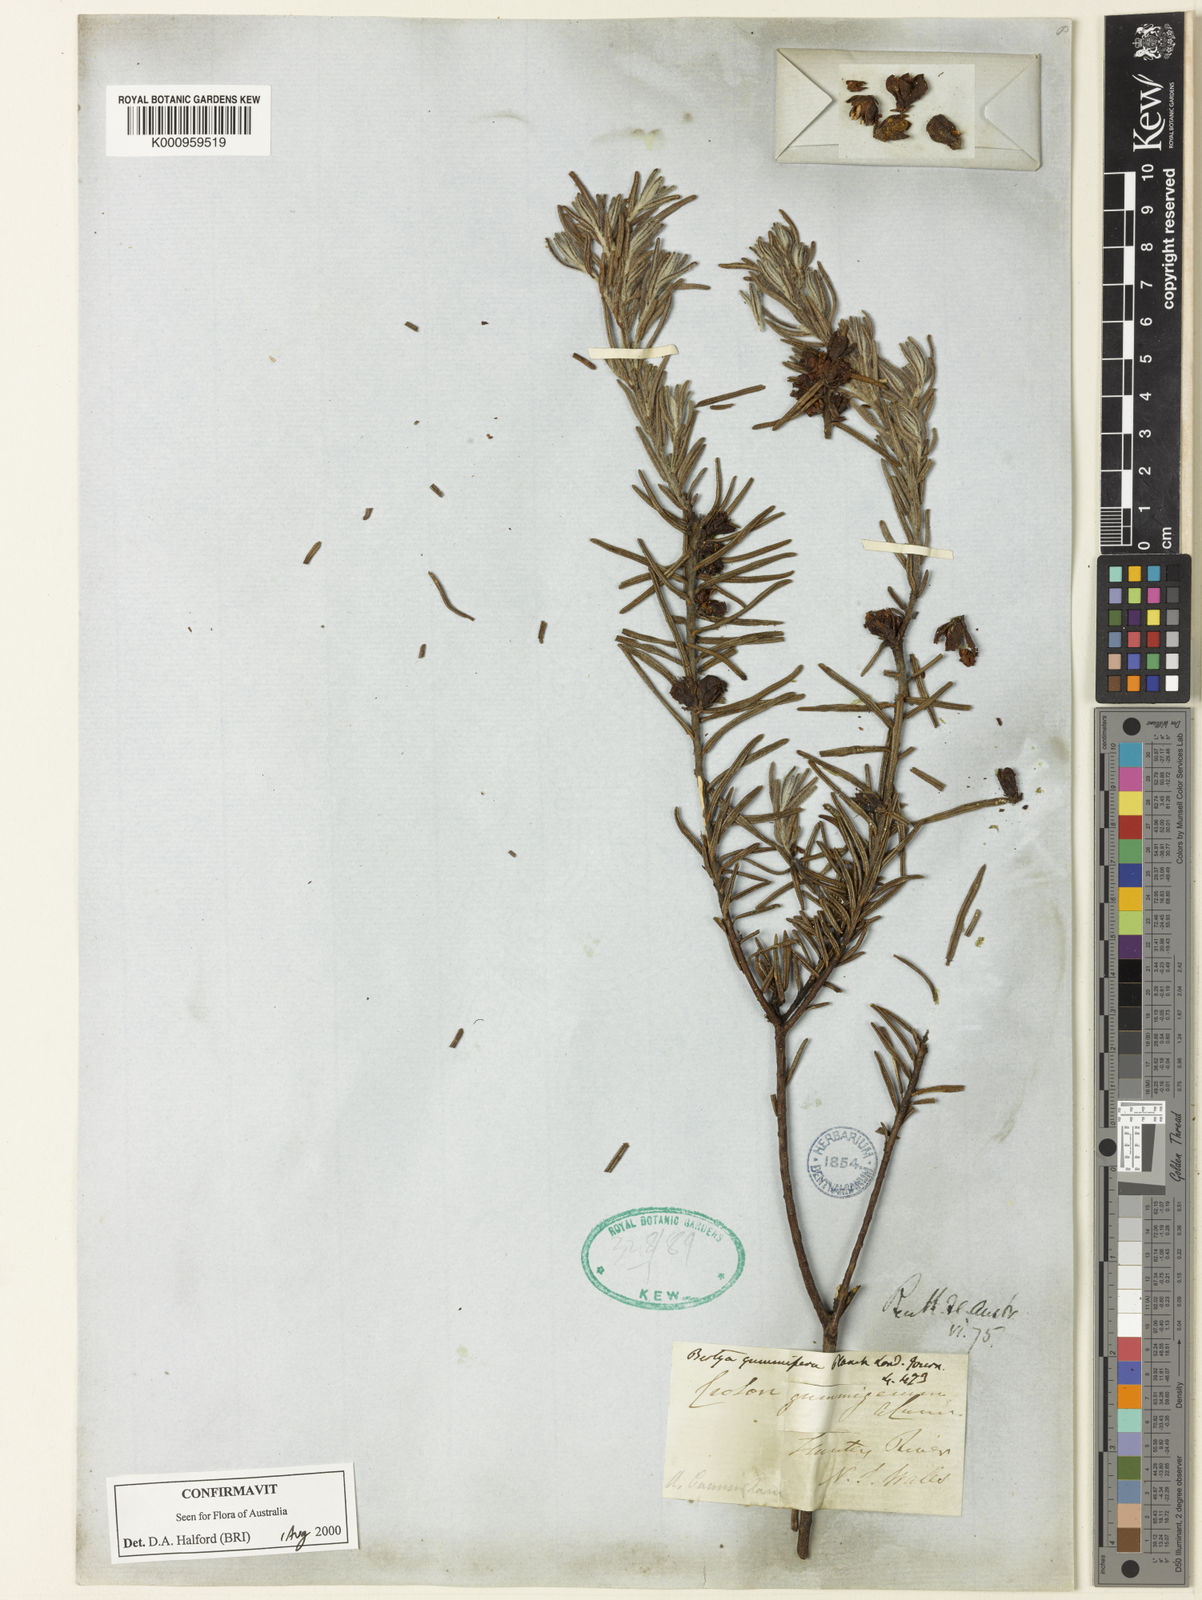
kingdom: Plantae
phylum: Tracheophyta
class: Magnoliopsida
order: Malpighiales
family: Euphorbiaceae
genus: Bertya
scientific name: Bertya gummifera
